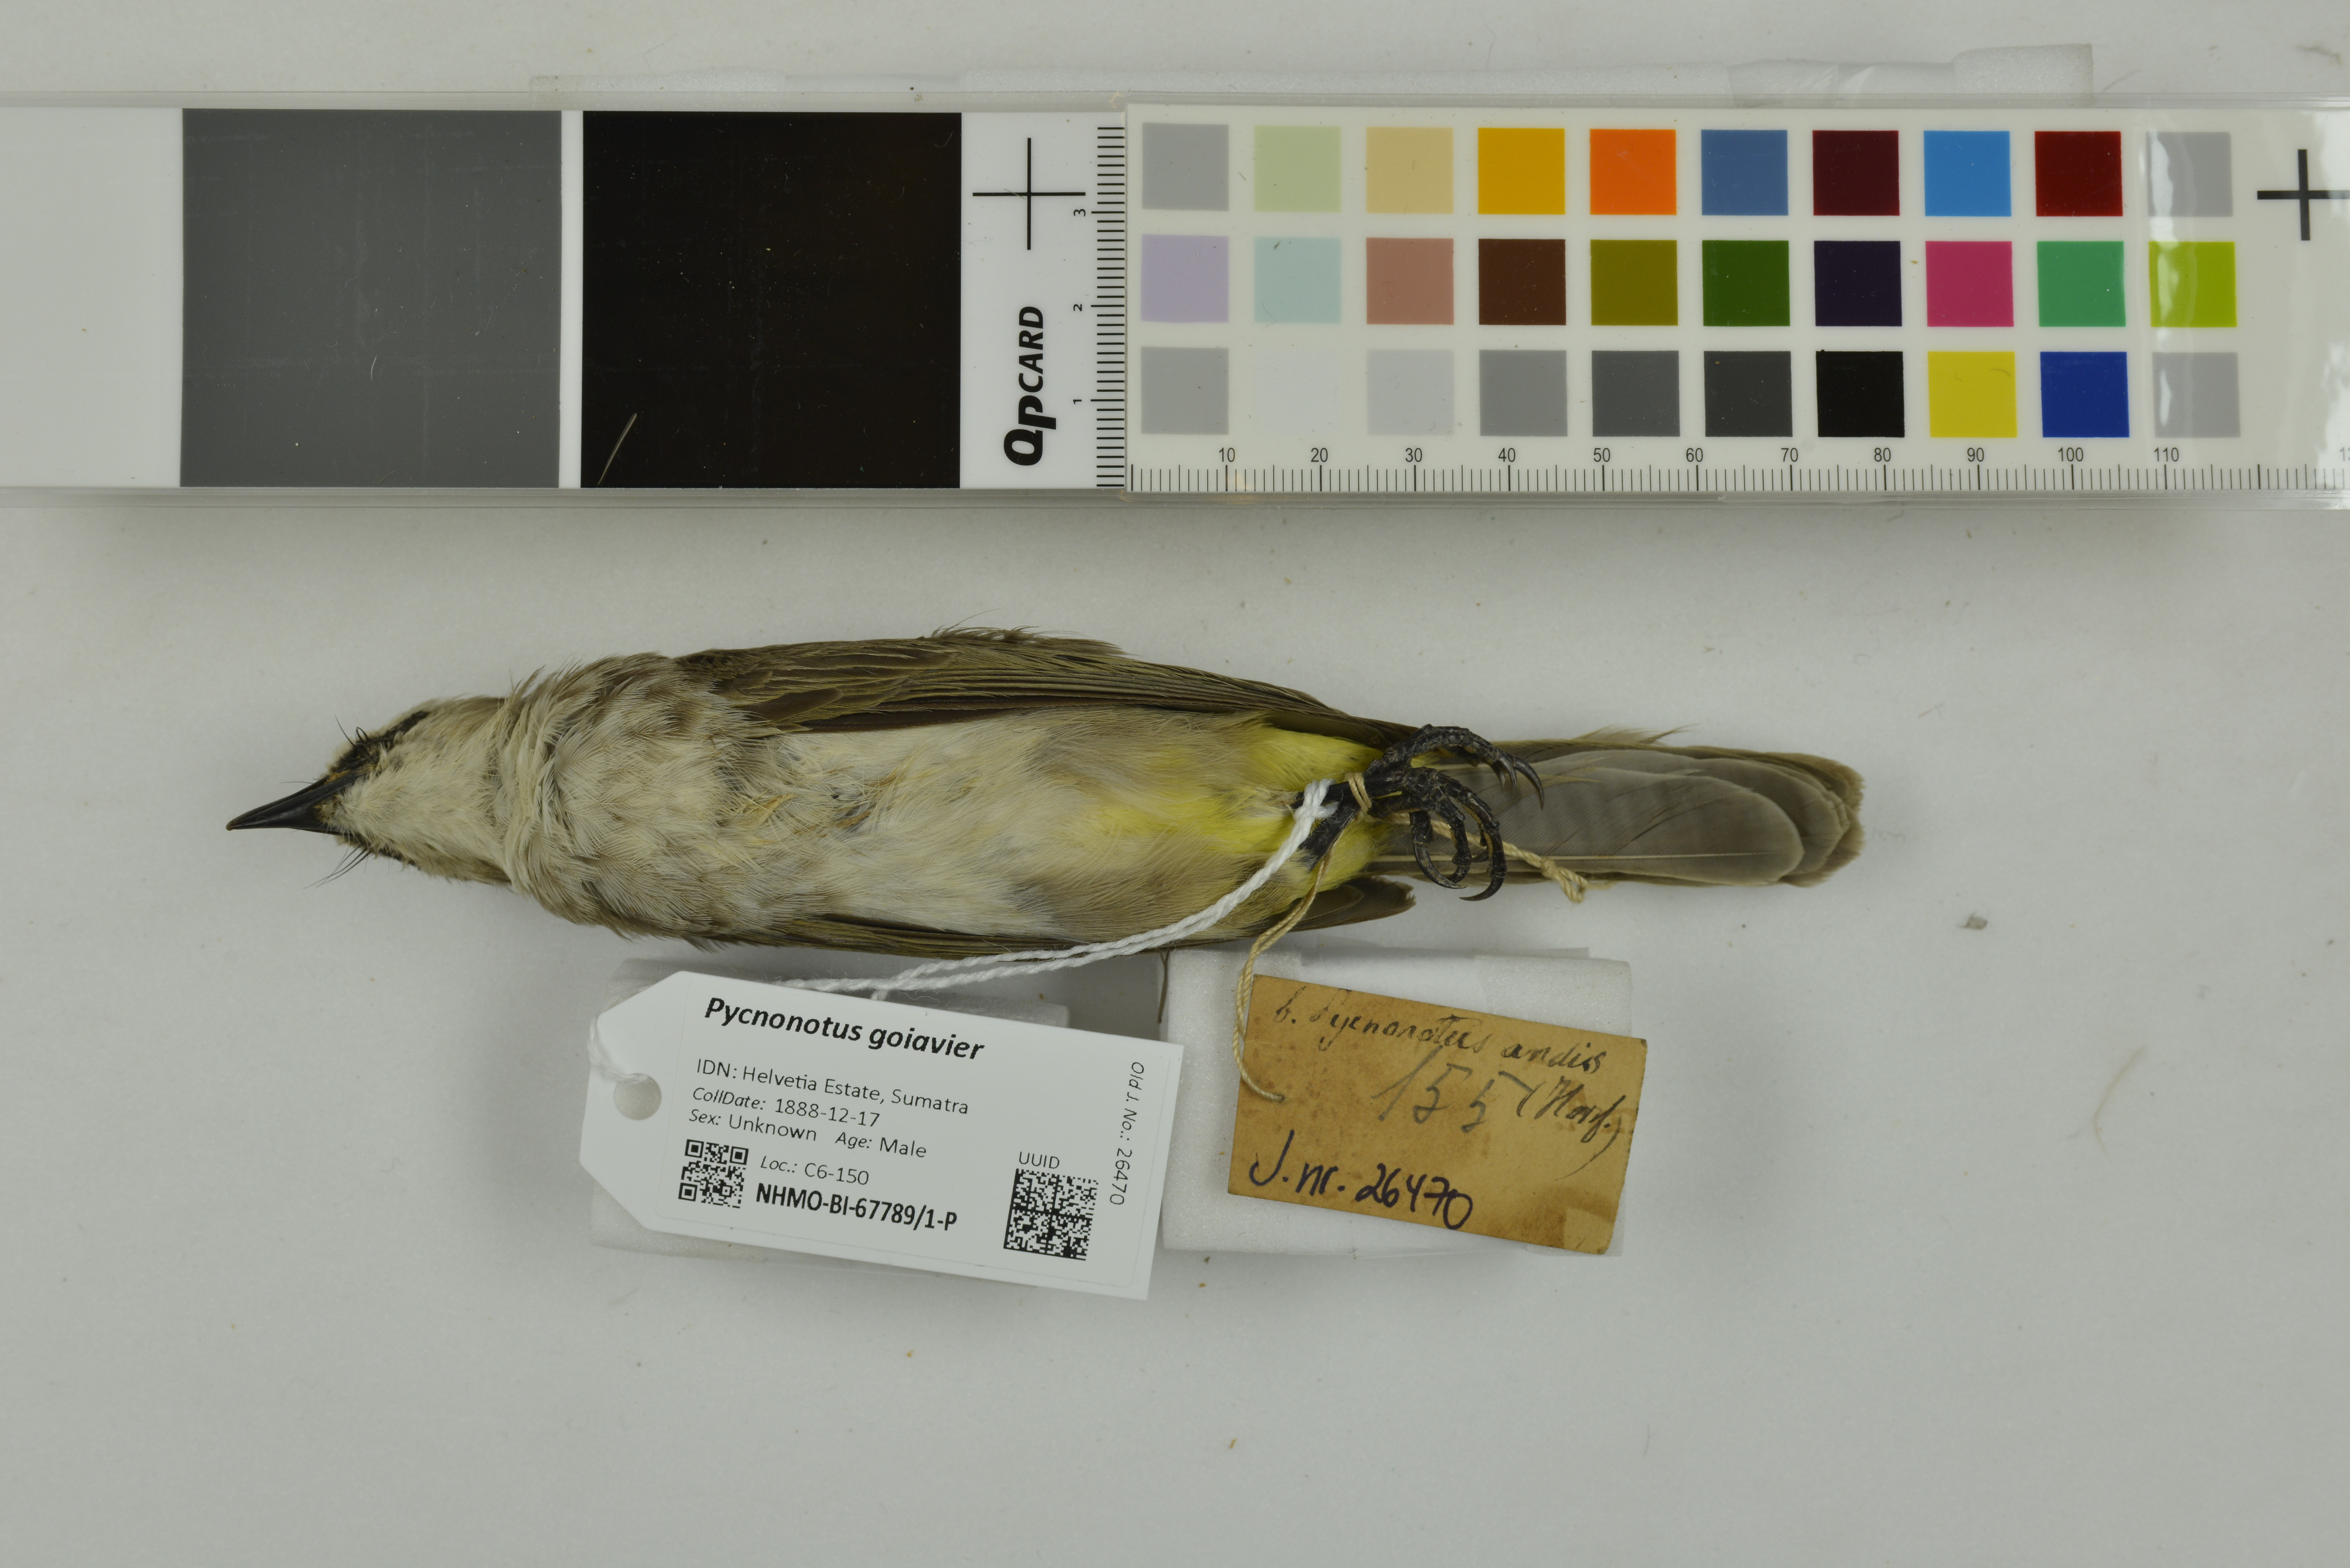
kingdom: Animalia
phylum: Chordata
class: Aves
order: Passeriformes
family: Pycnonotidae
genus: Pycnonotus
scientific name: Pycnonotus goiavier
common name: Yellow-vented bulbul
